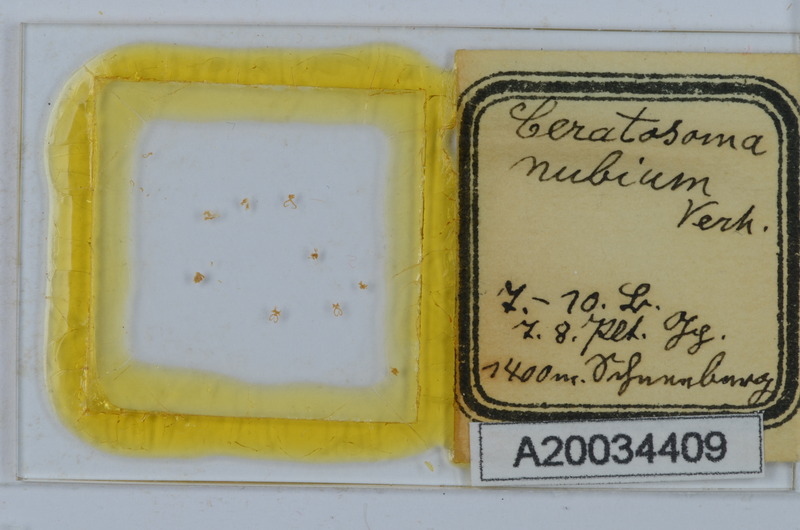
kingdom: Animalia
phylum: Arthropoda
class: Diplopoda
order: Chordeumatida
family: Craspedosomatidae
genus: Ochogona
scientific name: Ochogona elaphron
